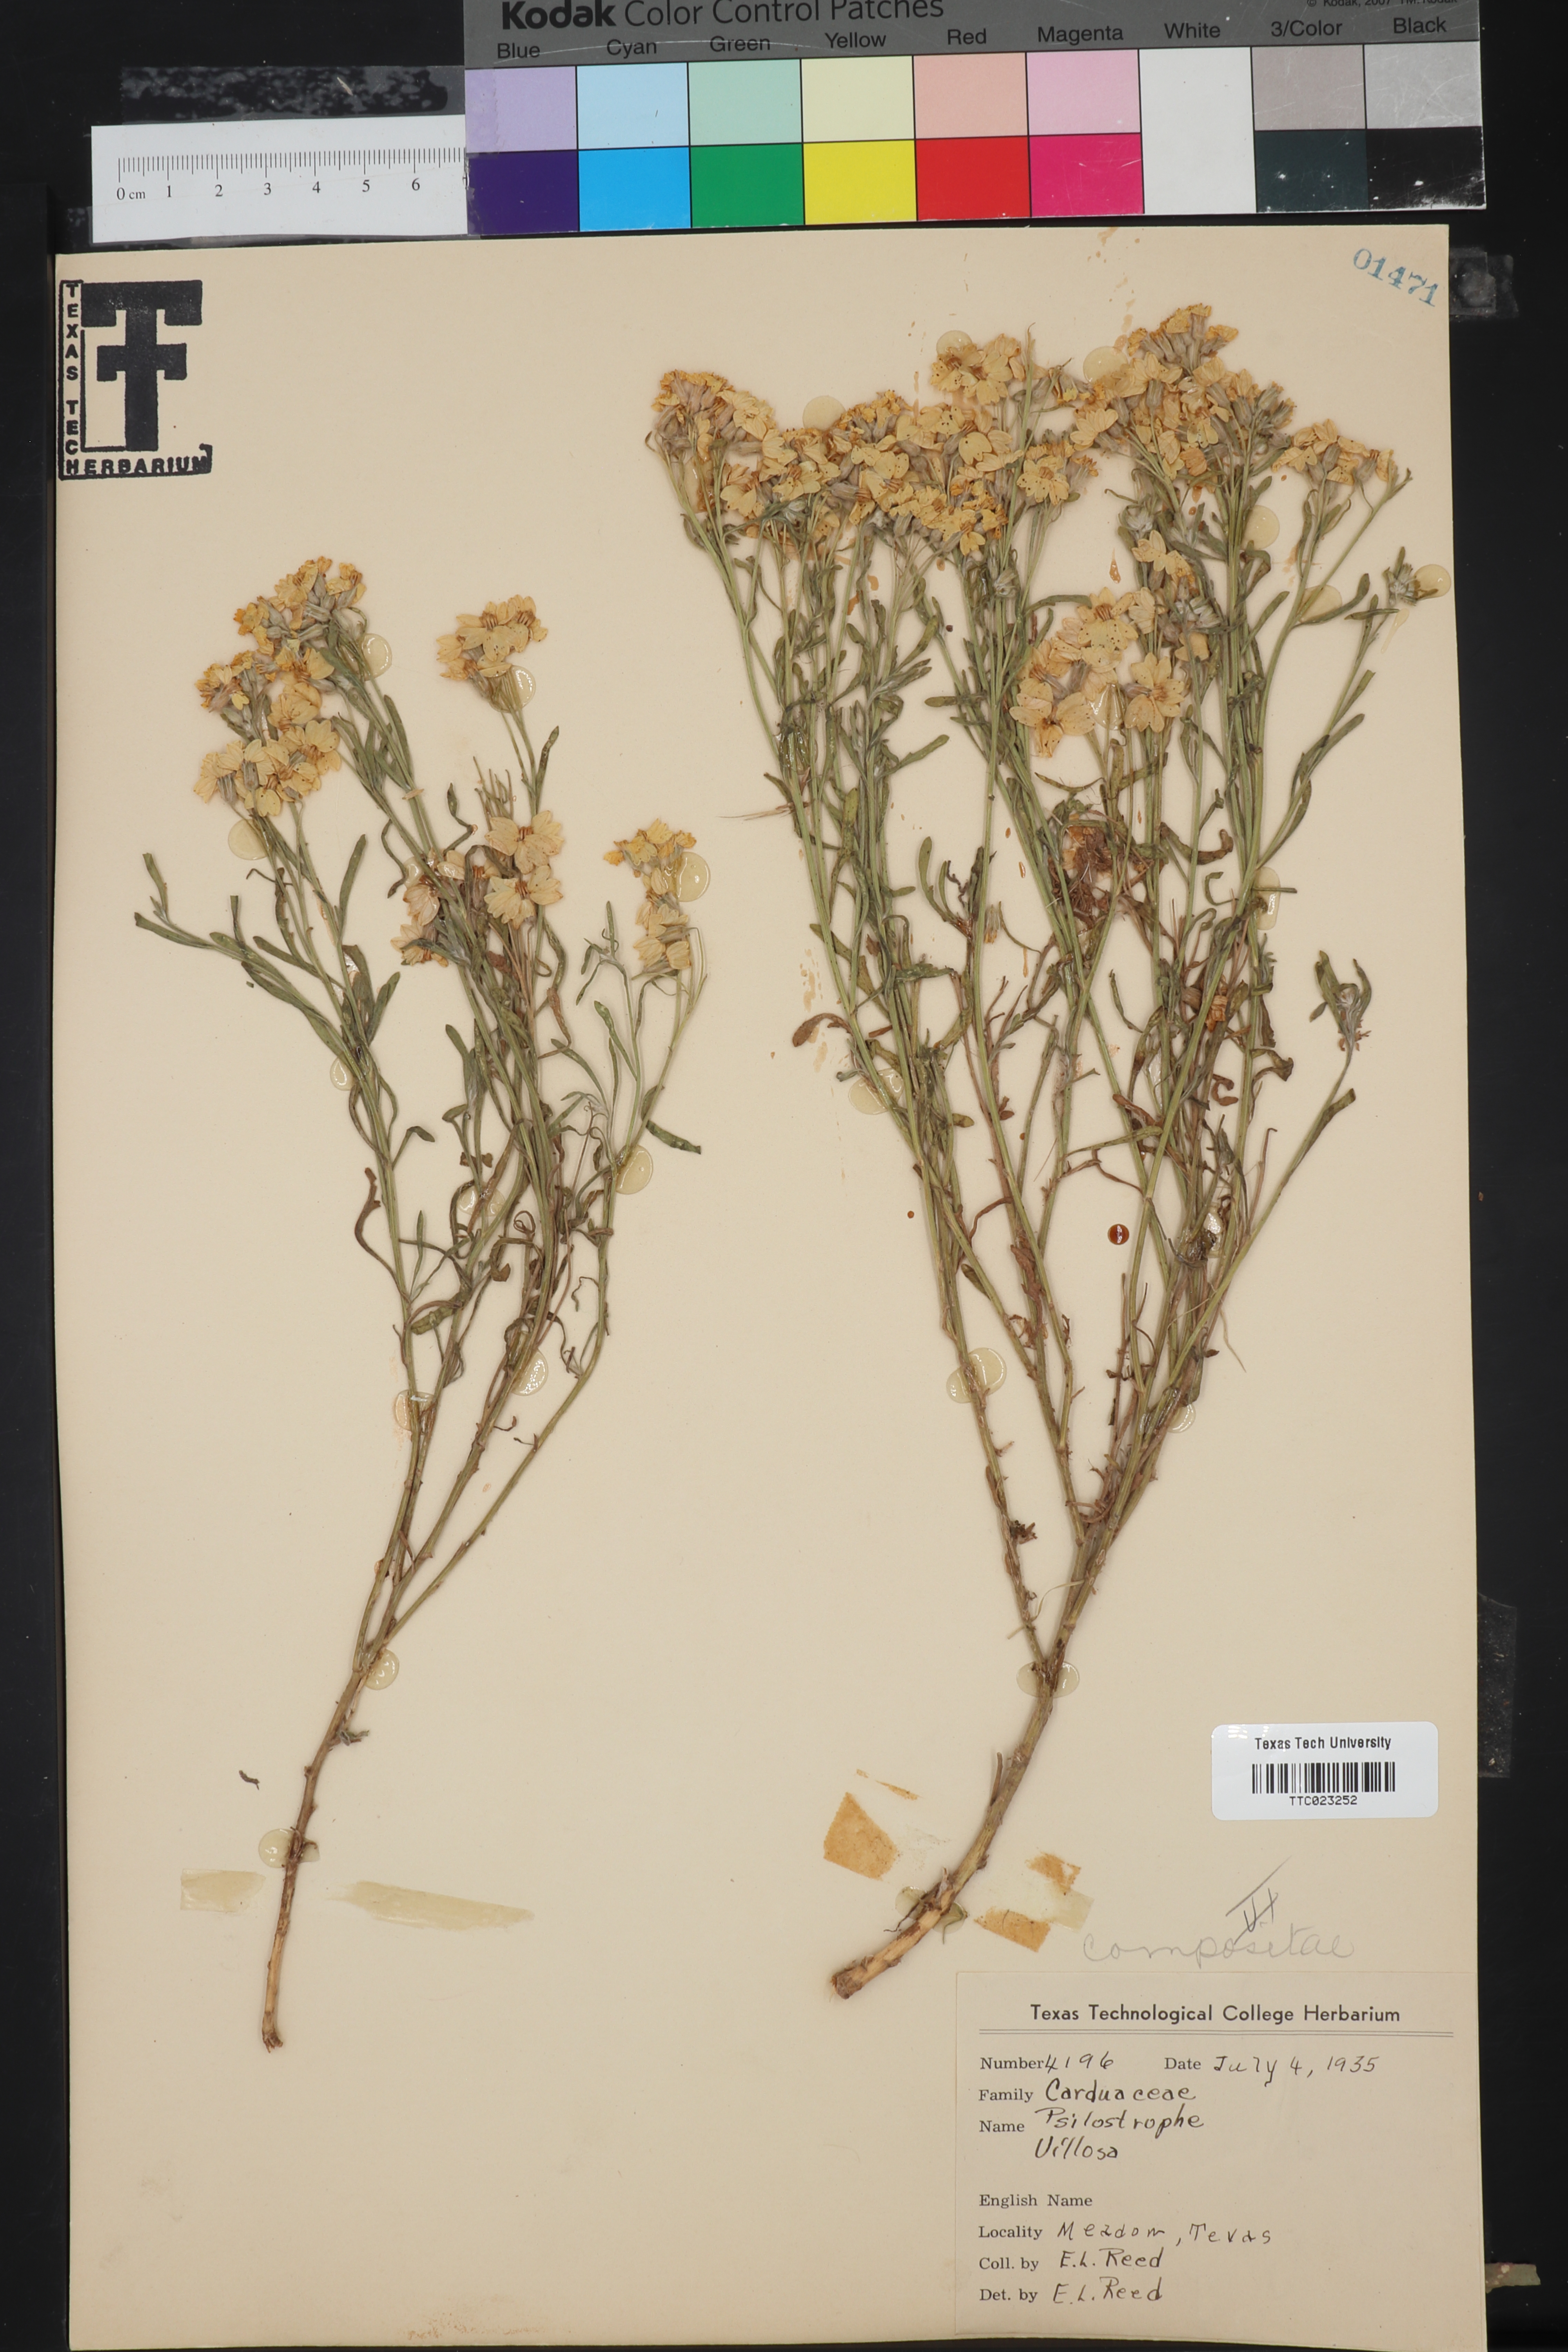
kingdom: Plantae
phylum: Tracheophyta
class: Magnoliopsida
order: Asterales
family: Asteraceae
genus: Psilostrophe
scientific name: Psilostrophe villosa
